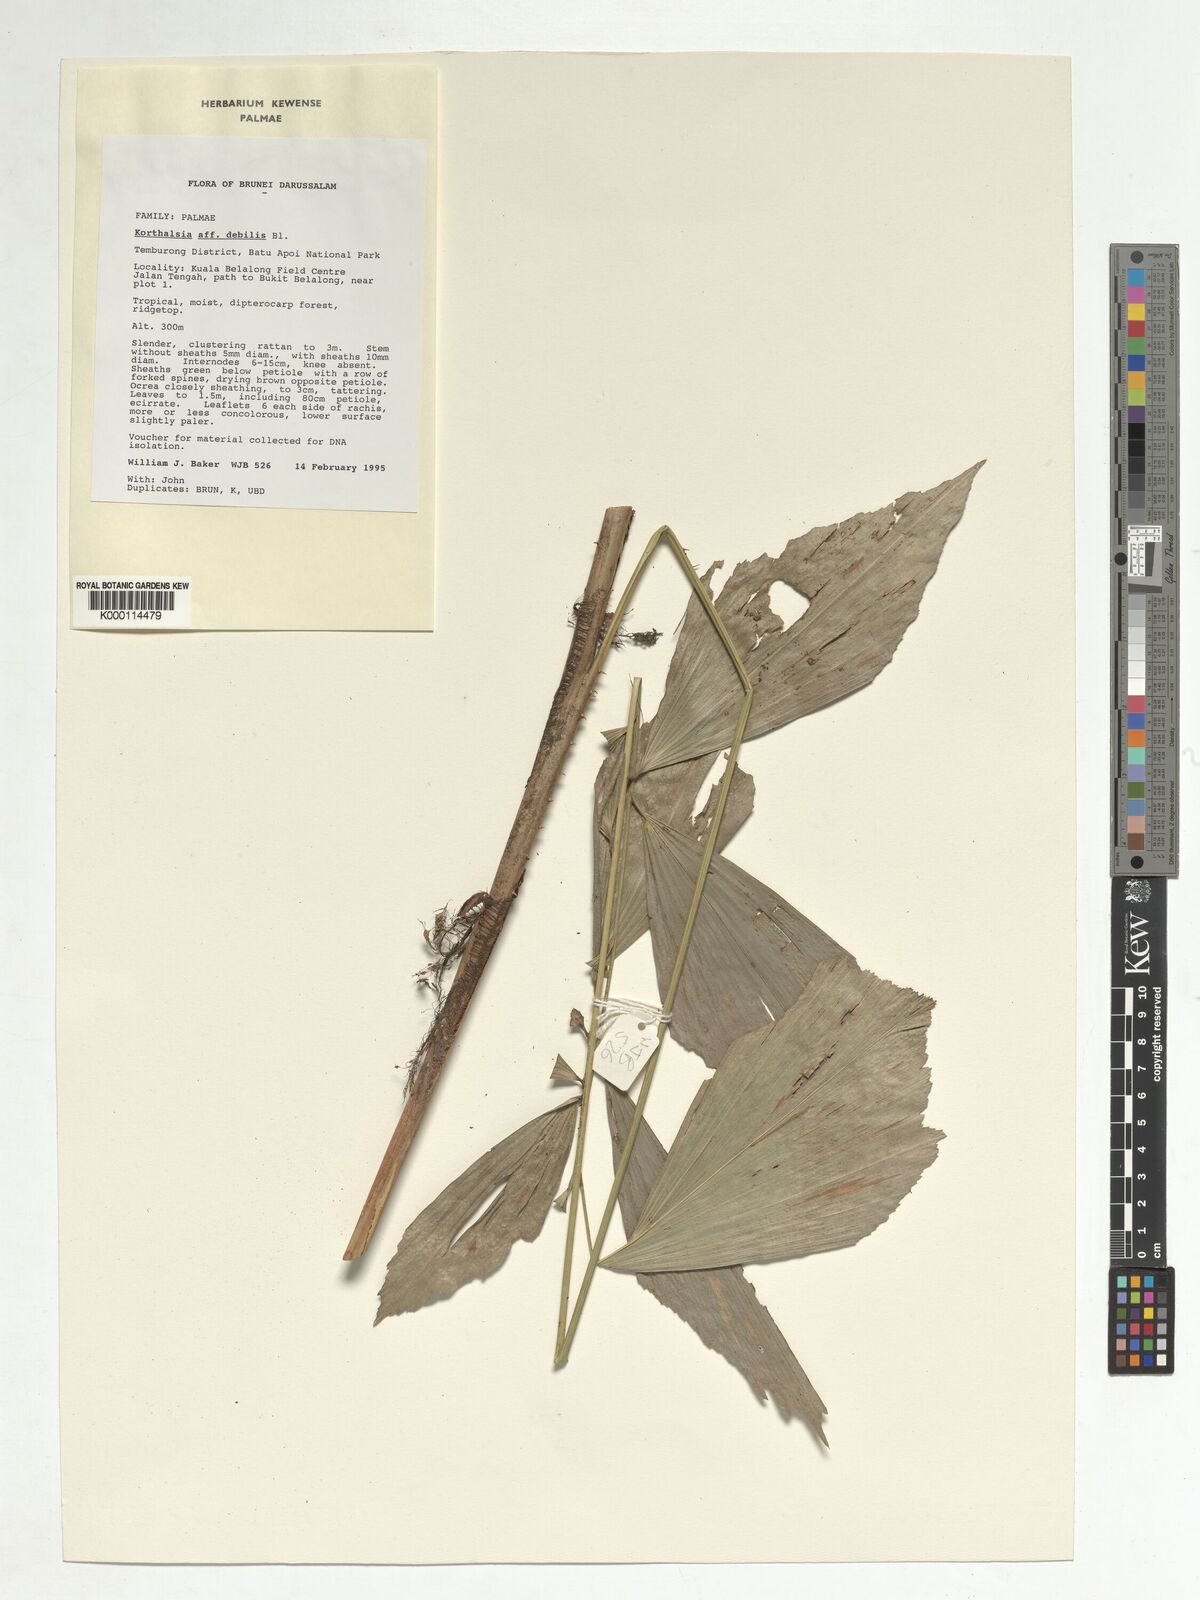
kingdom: Plantae
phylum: Tracheophyta
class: Liliopsida
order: Arecales
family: Arecaceae
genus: Korthalsia
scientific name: Korthalsia debilis
